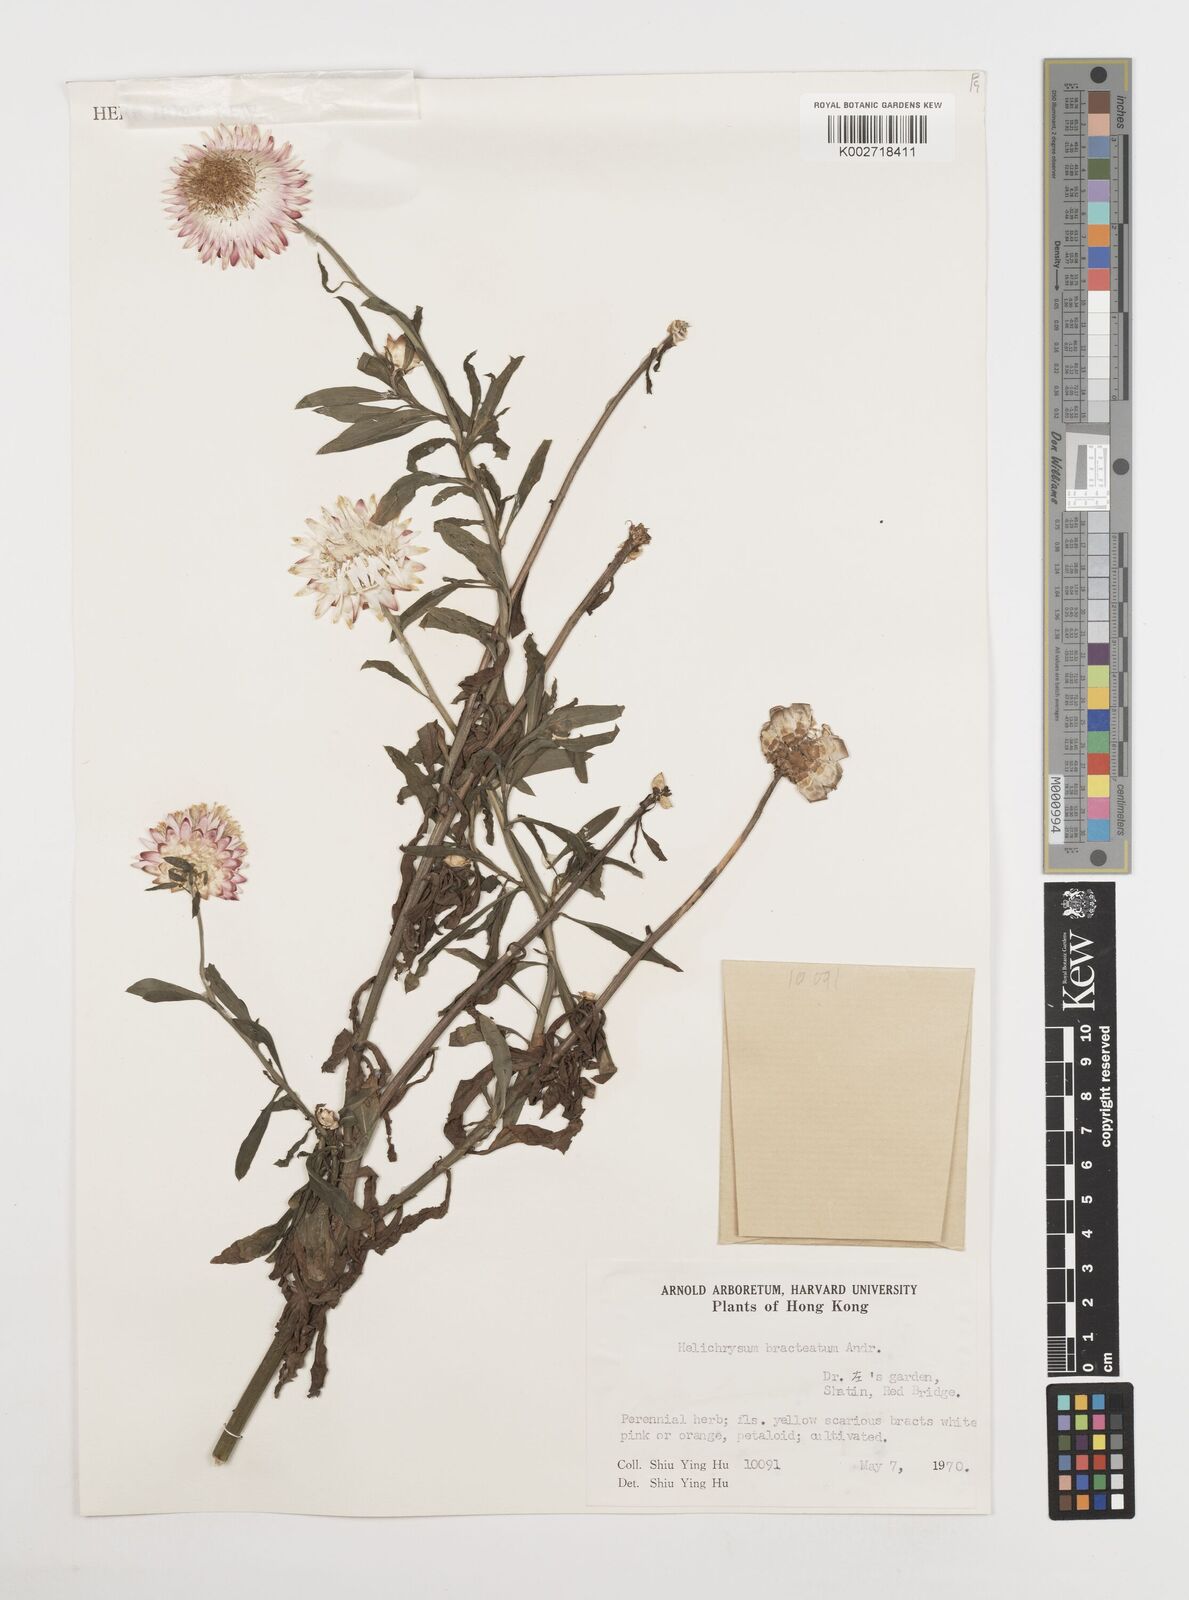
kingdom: Plantae
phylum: Tracheophyta
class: Magnoliopsida
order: Asterales
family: Asteraceae
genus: Xerochrysum
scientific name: Xerochrysum bracteatum
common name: Bracted strawflower
